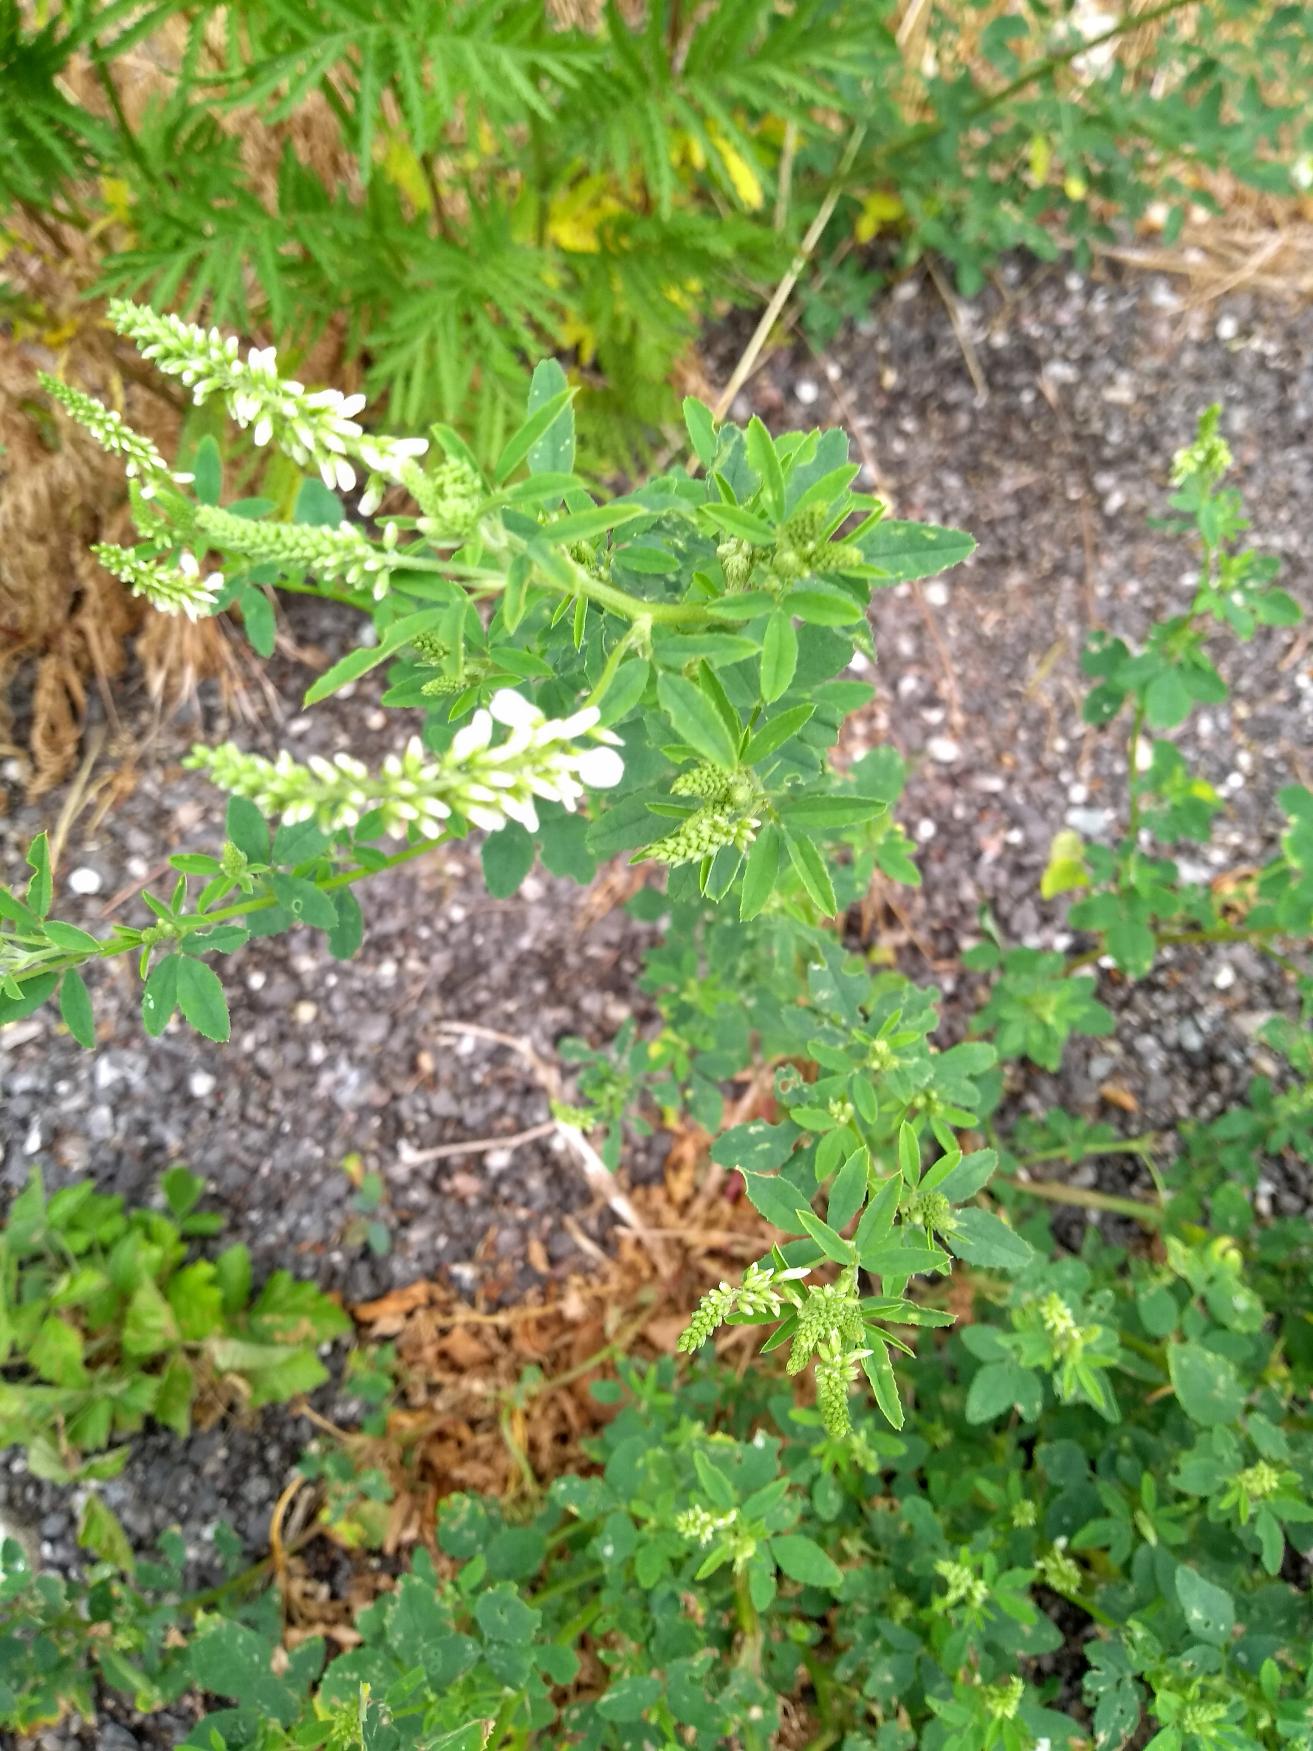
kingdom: Plantae
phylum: Tracheophyta
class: Magnoliopsida
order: Fabales
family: Fabaceae
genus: Melilotus
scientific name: Melilotus albus
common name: Hvid stenkløver
